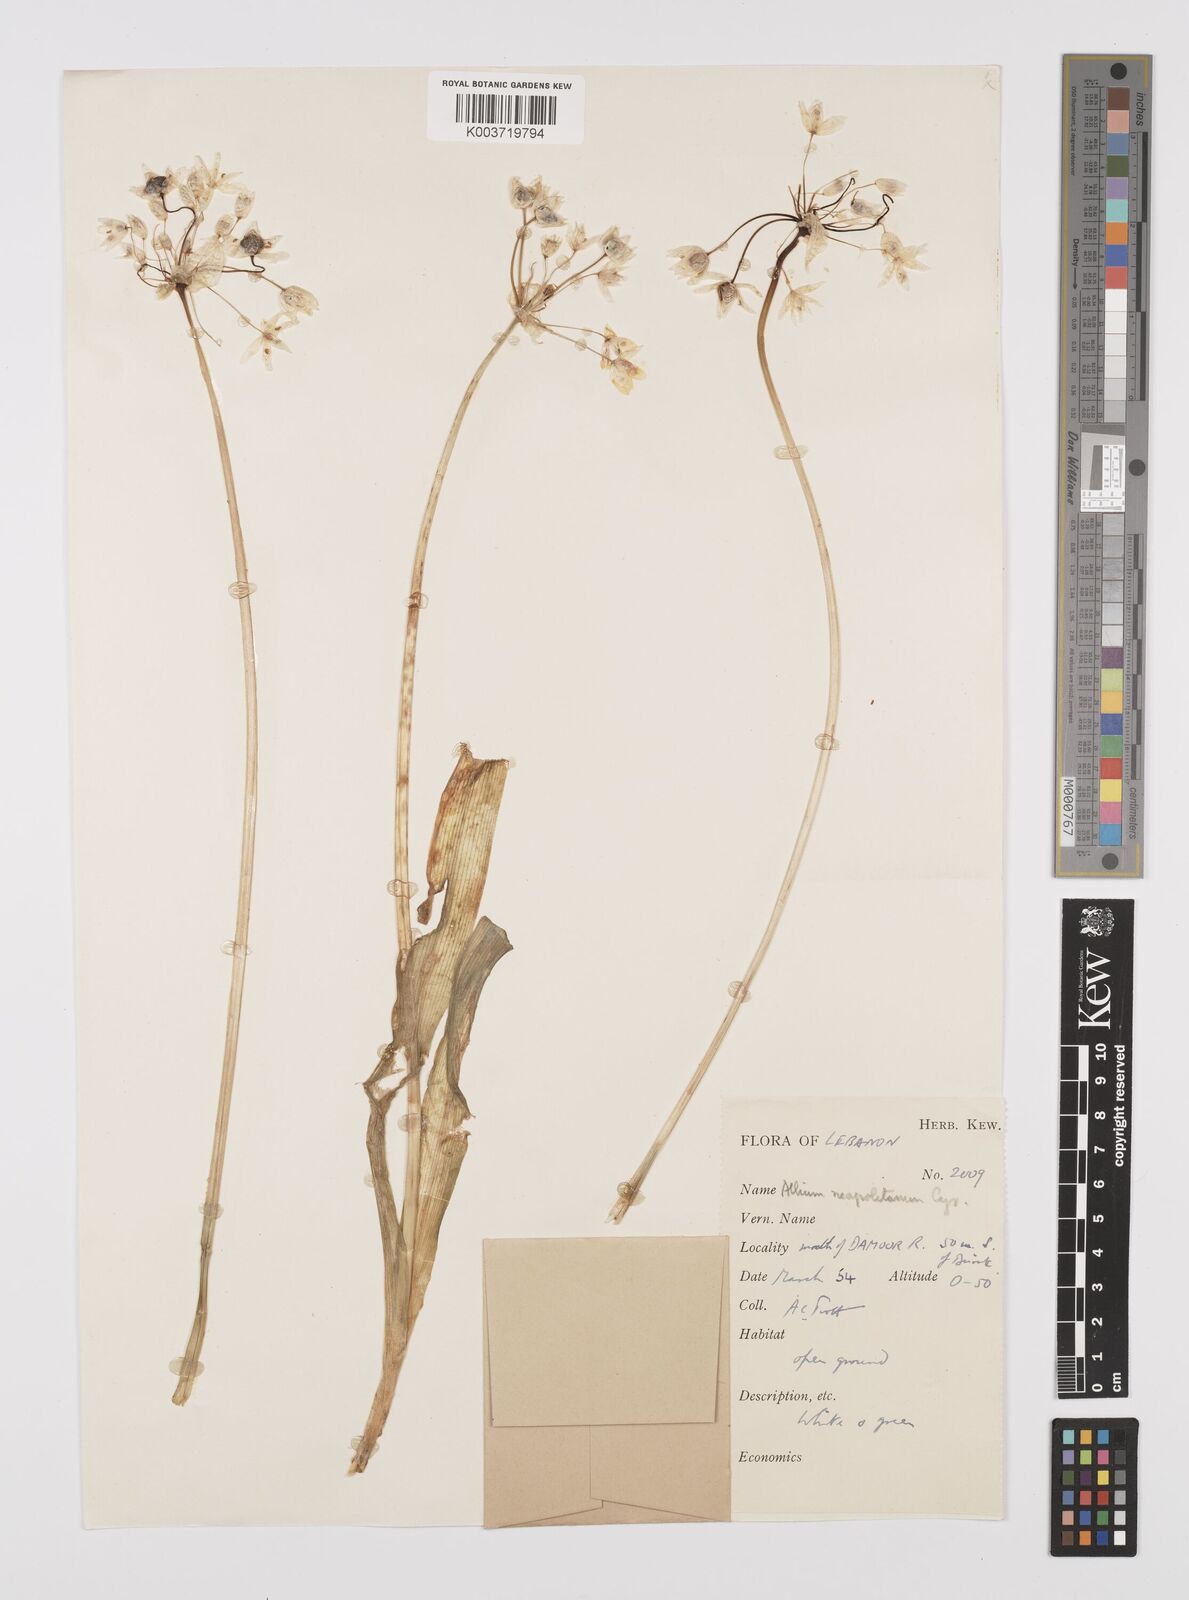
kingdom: Plantae
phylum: Tracheophyta
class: Liliopsida
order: Asparagales
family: Amaryllidaceae
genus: Allium
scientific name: Allium neapolitanum
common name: Neapolitan garlic
